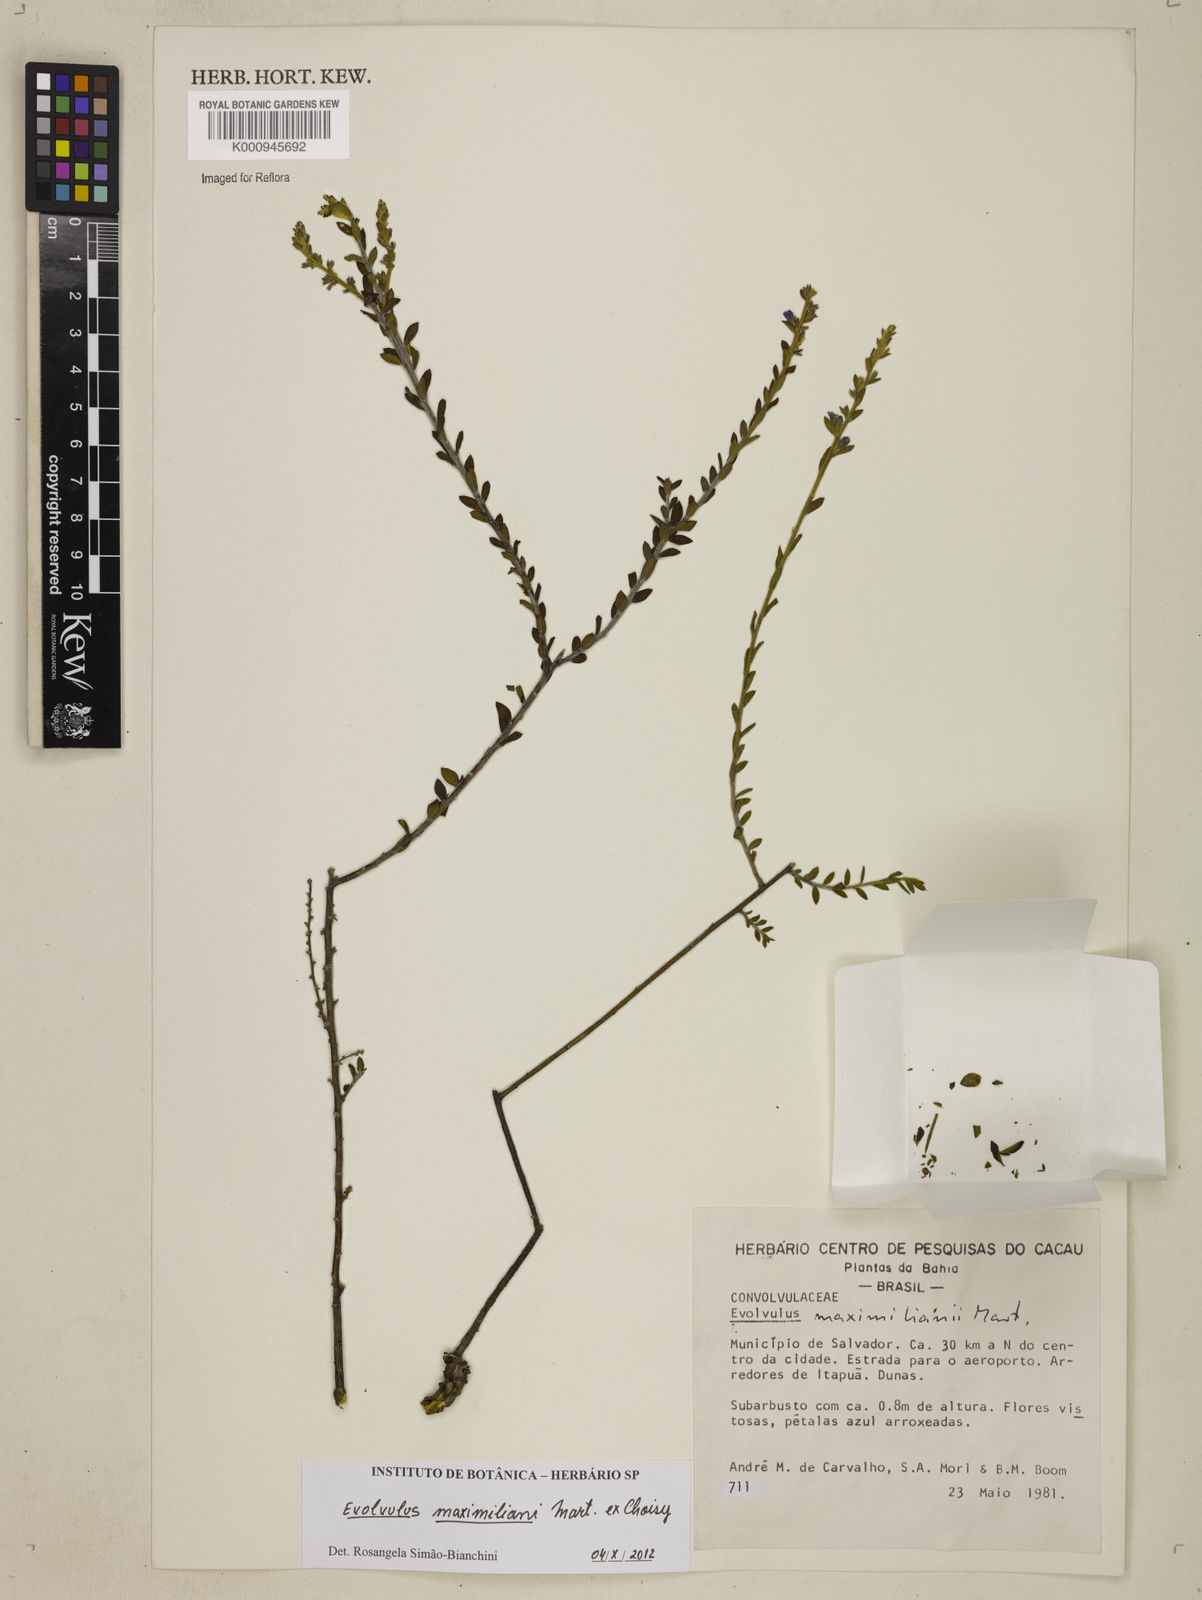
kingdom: Plantae
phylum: Tracheophyta
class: Magnoliopsida
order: Solanales
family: Convolvulaceae
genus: Evolvulus
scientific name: Evolvulus maximiliani
